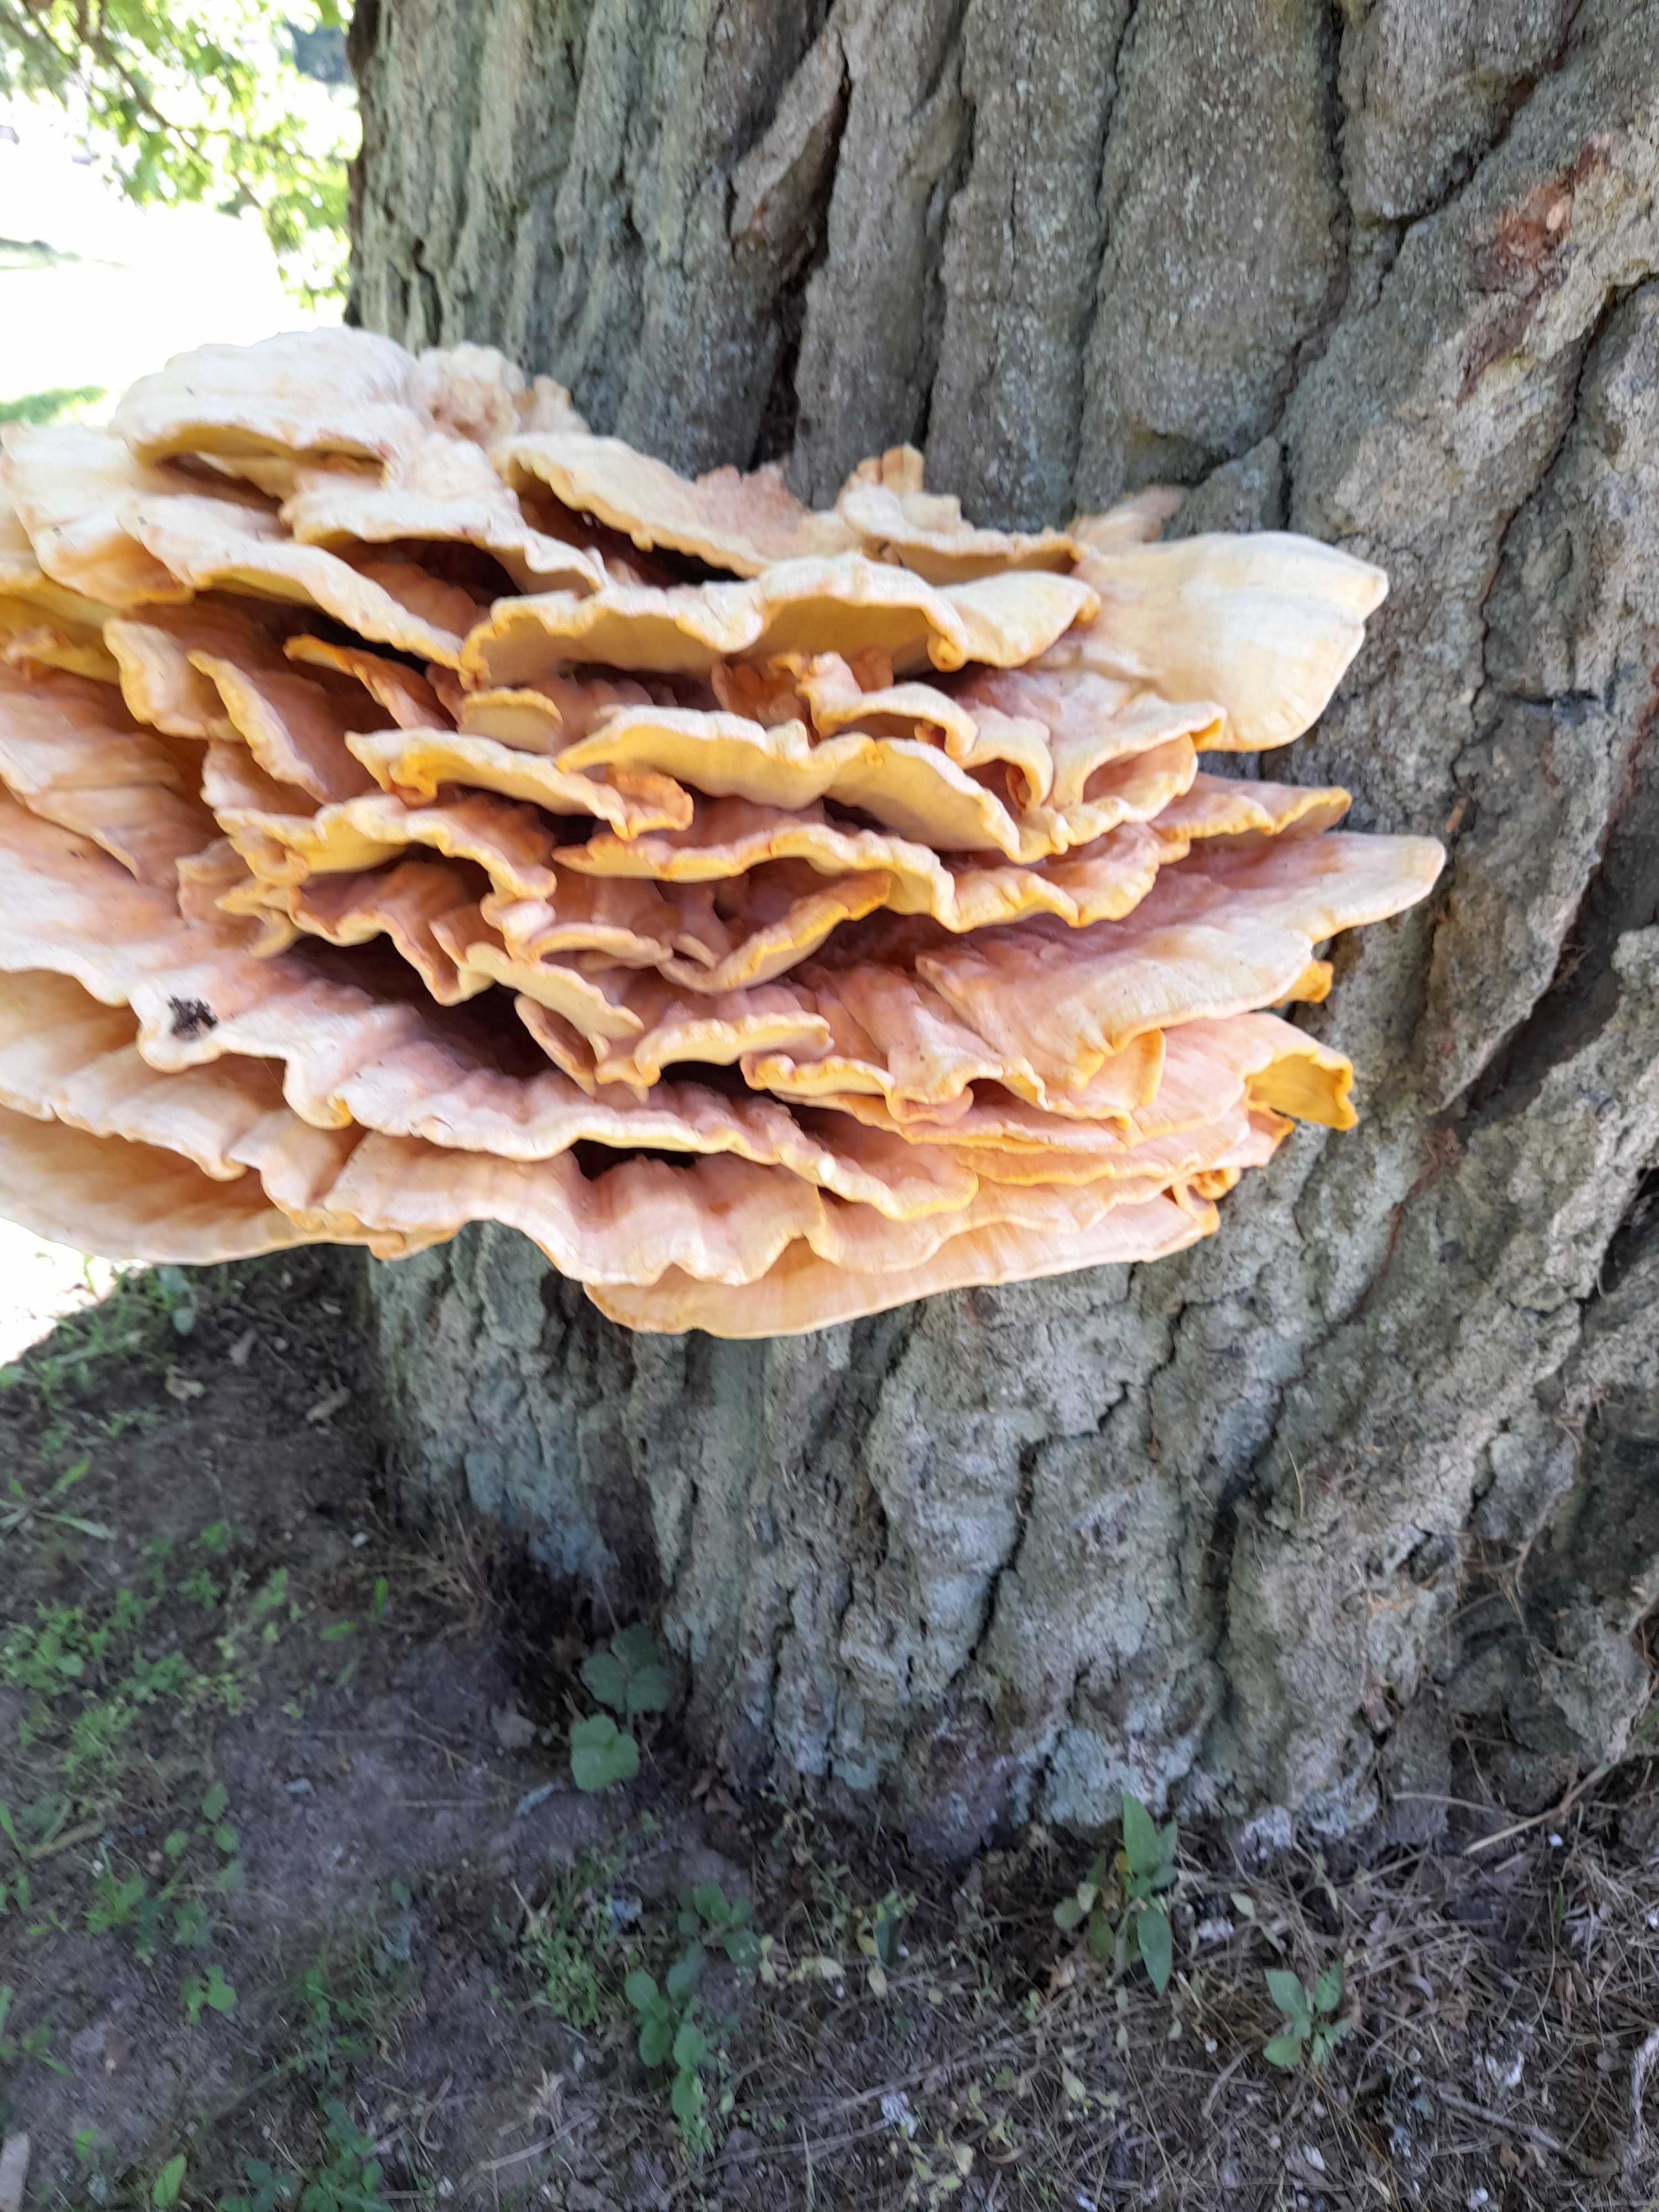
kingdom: Fungi
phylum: Basidiomycota
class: Agaricomycetes
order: Polyporales
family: Laetiporaceae
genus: Laetiporus
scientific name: Laetiporus sulphureus
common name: svovlporesvamp
